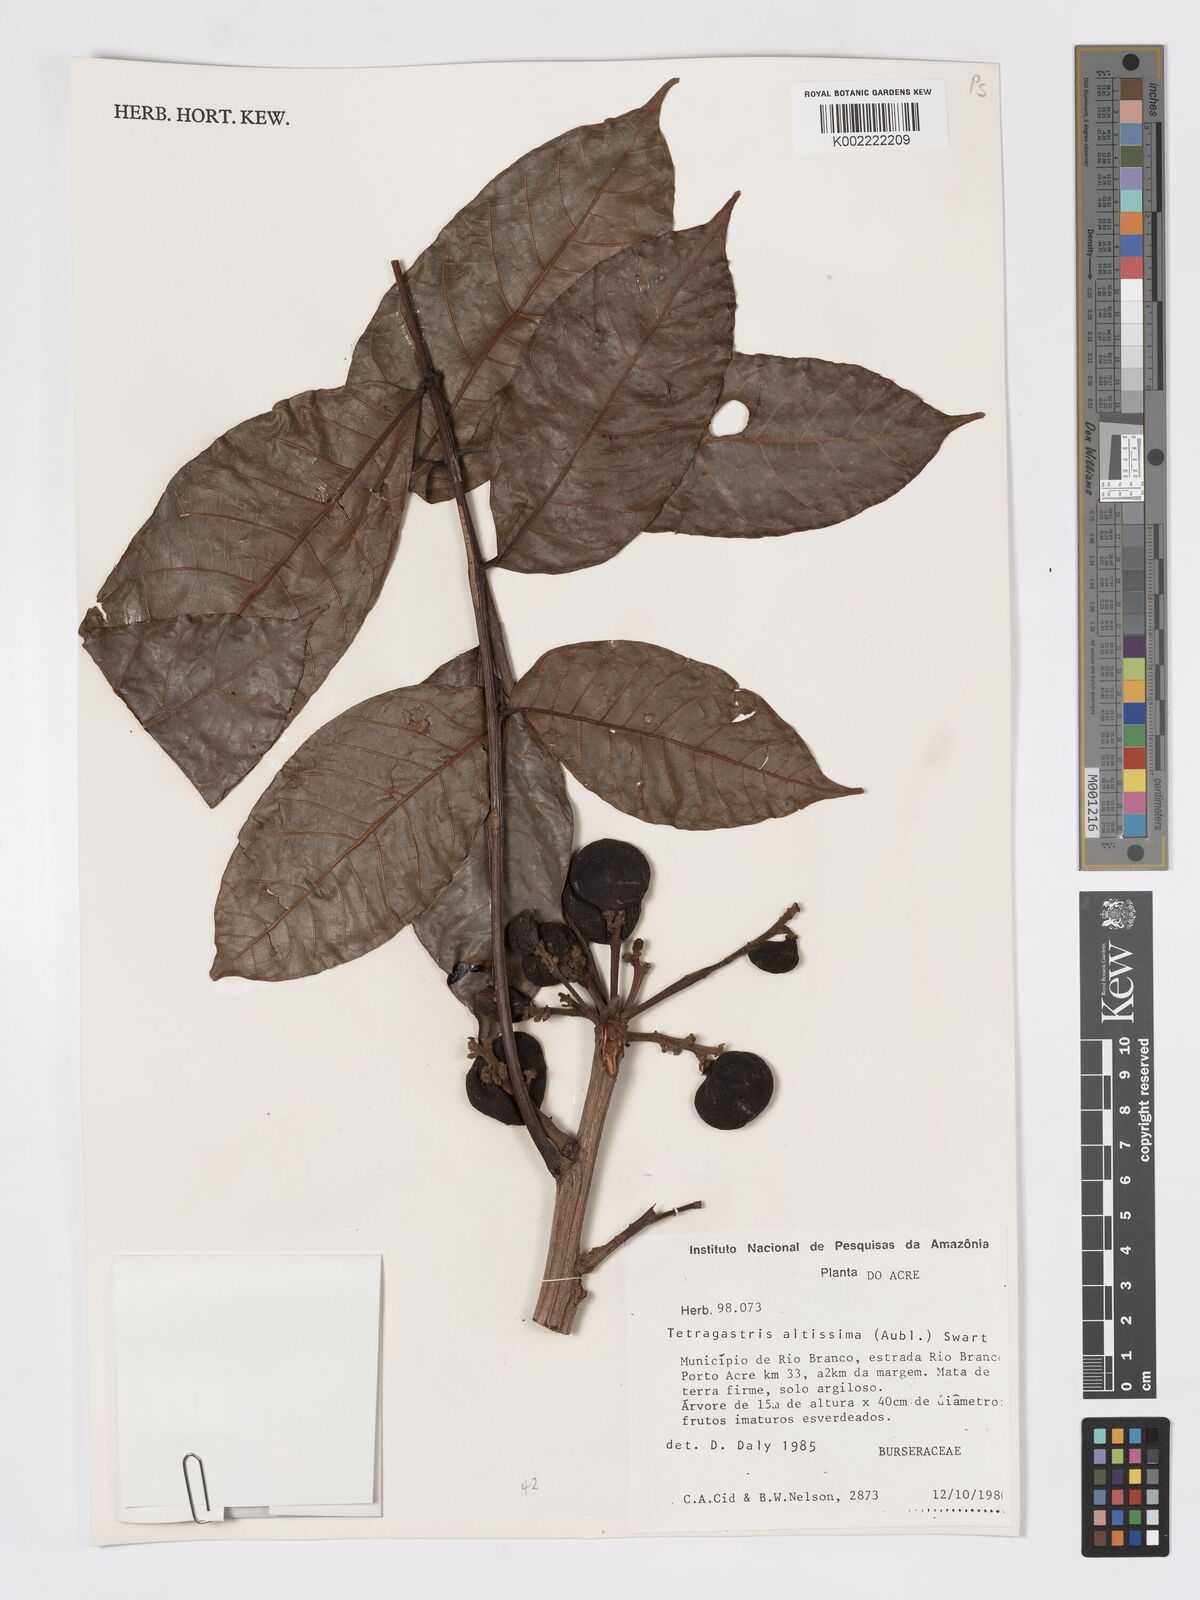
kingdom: Plantae
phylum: Tracheophyta
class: Magnoliopsida
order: Sapindales
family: Burseraceae
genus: Tetragastris
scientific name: Tetragastris altissima
